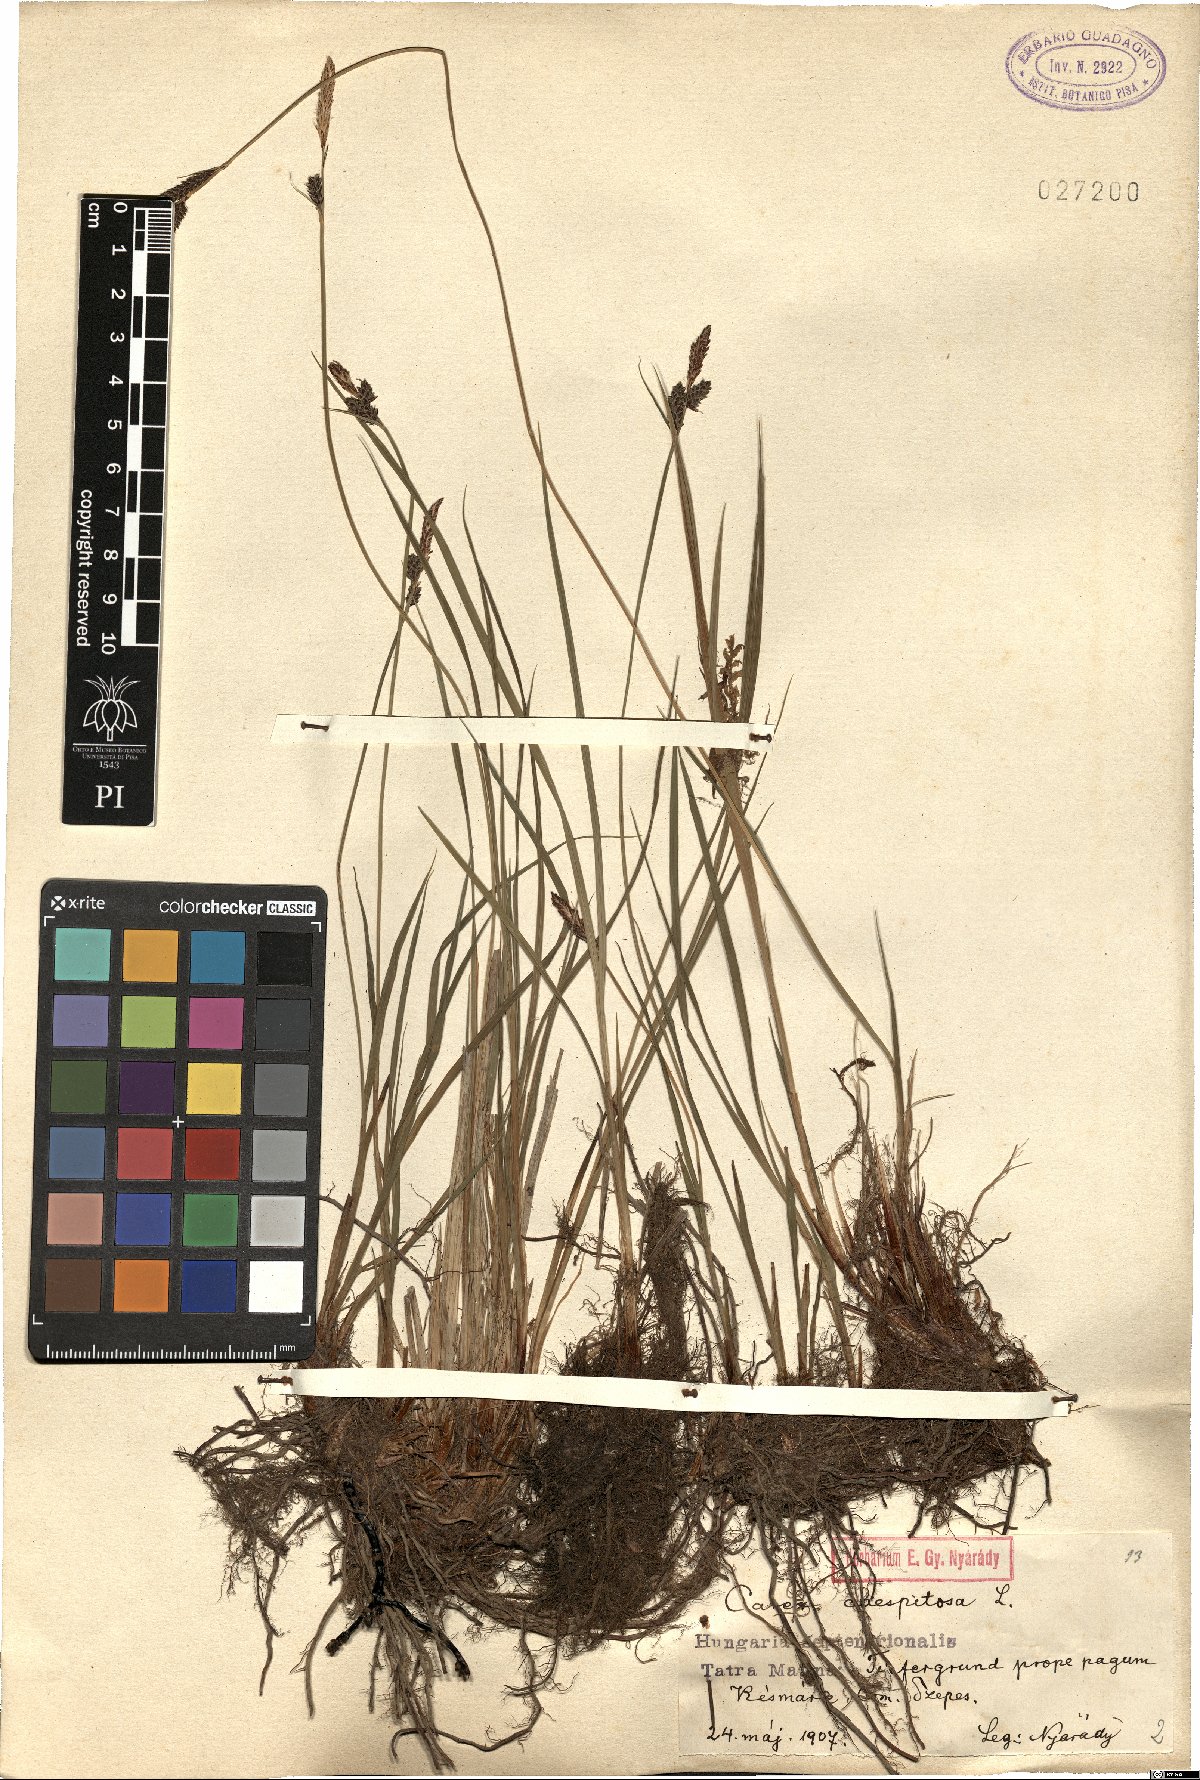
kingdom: Plantae
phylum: Tracheophyta
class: Liliopsida
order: Poales
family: Cyperaceae
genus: Carex
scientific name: Carex cespitosa
